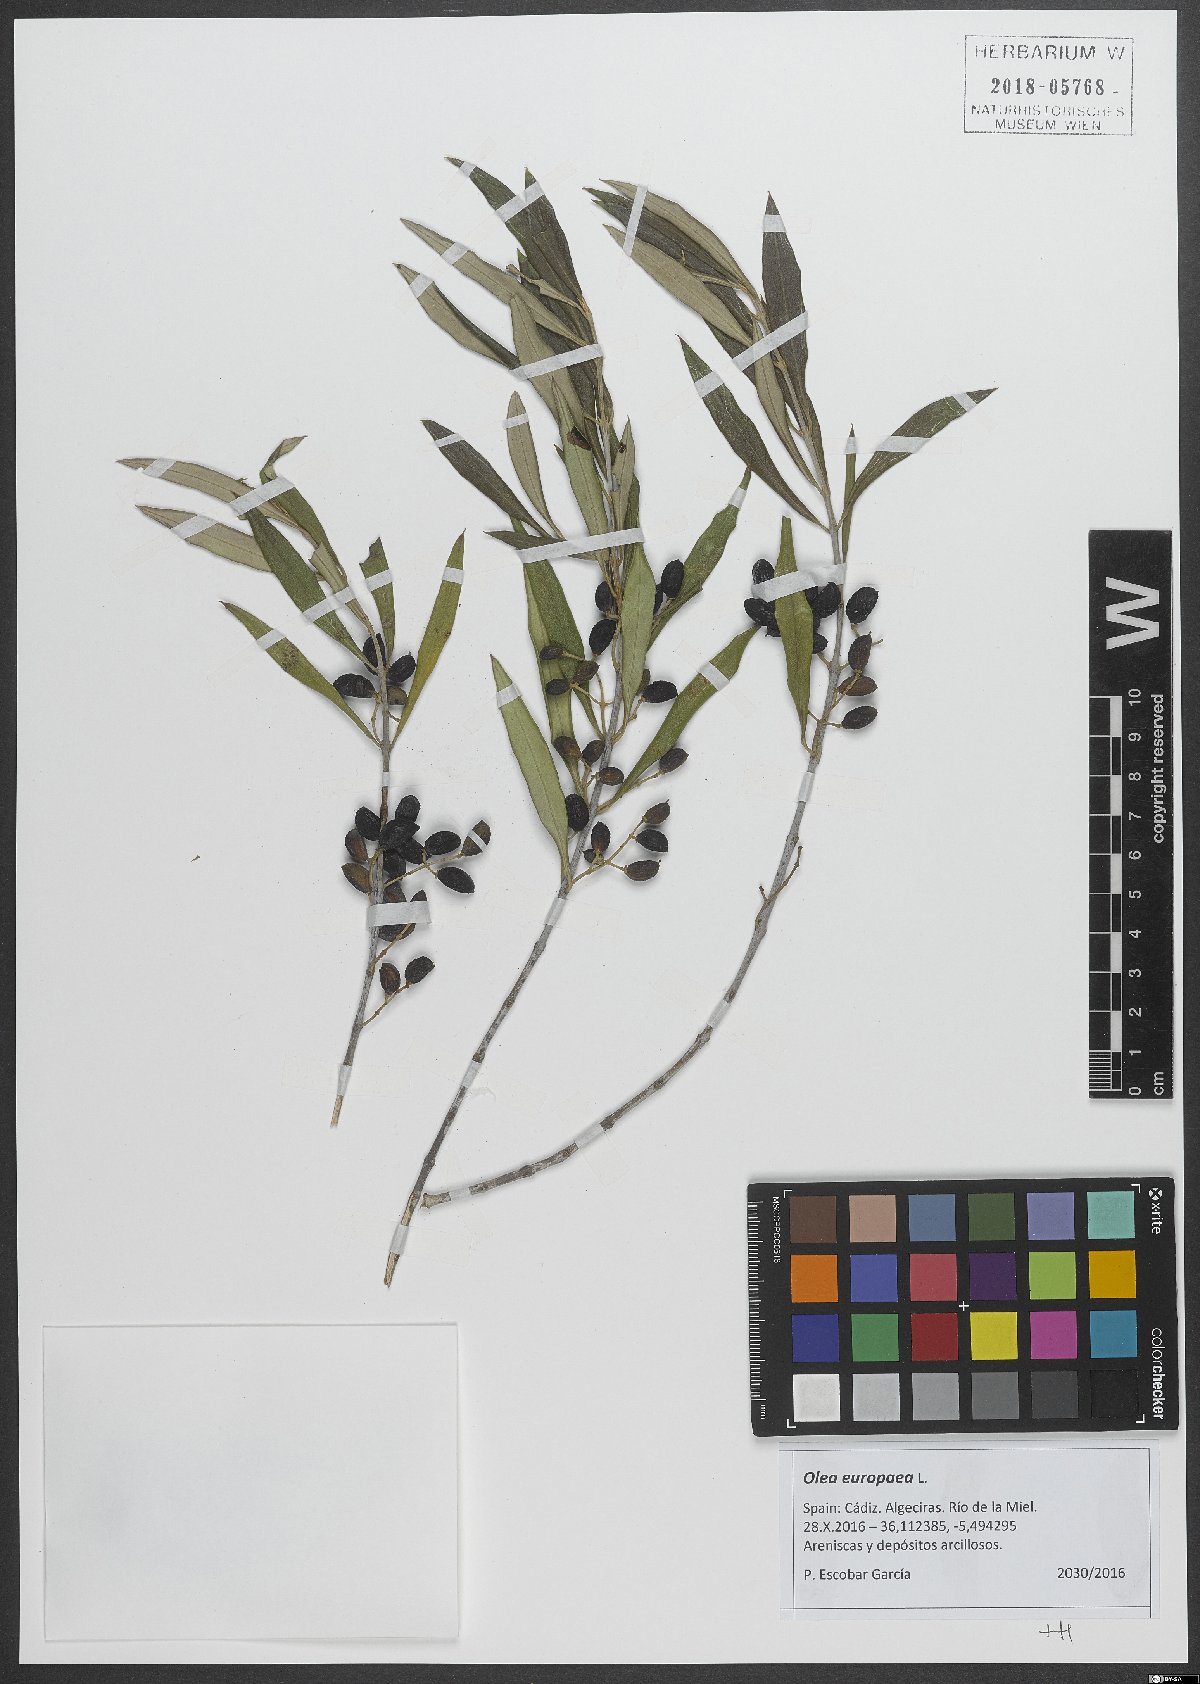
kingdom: Plantae
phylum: Tracheophyta
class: Magnoliopsida
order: Lamiales
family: Oleaceae
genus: Olea
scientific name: Olea europaea
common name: Olive
